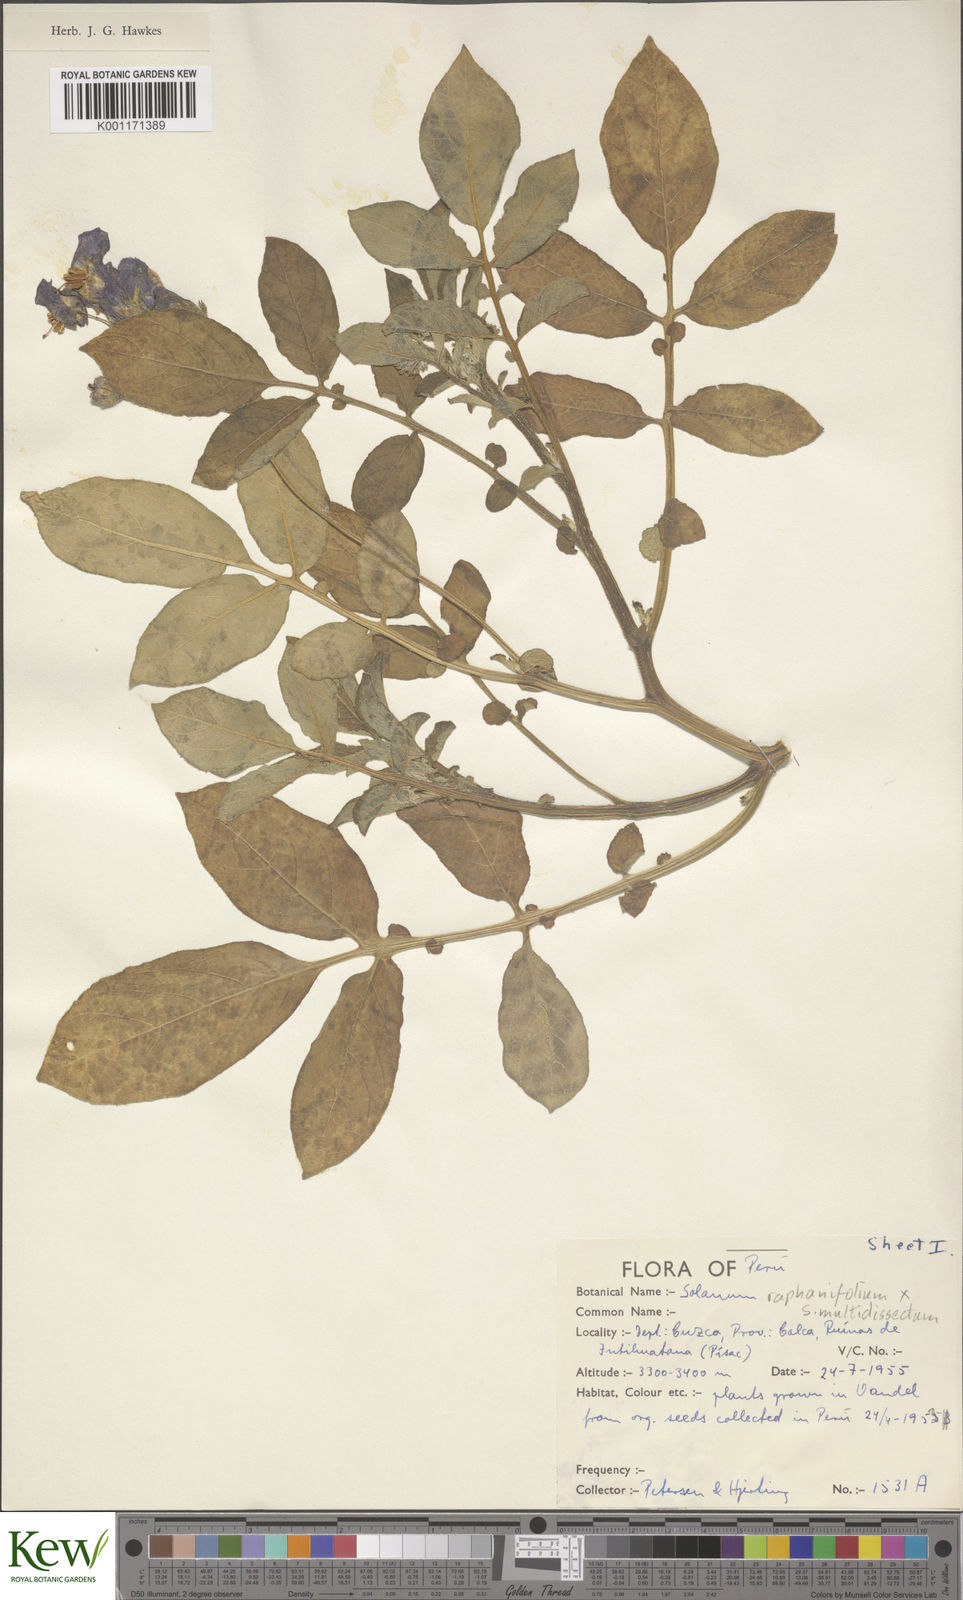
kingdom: Plantae
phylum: Tracheophyta
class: Magnoliopsida
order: Solanales
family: Solanaceae
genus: Solanum
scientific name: Solanum
